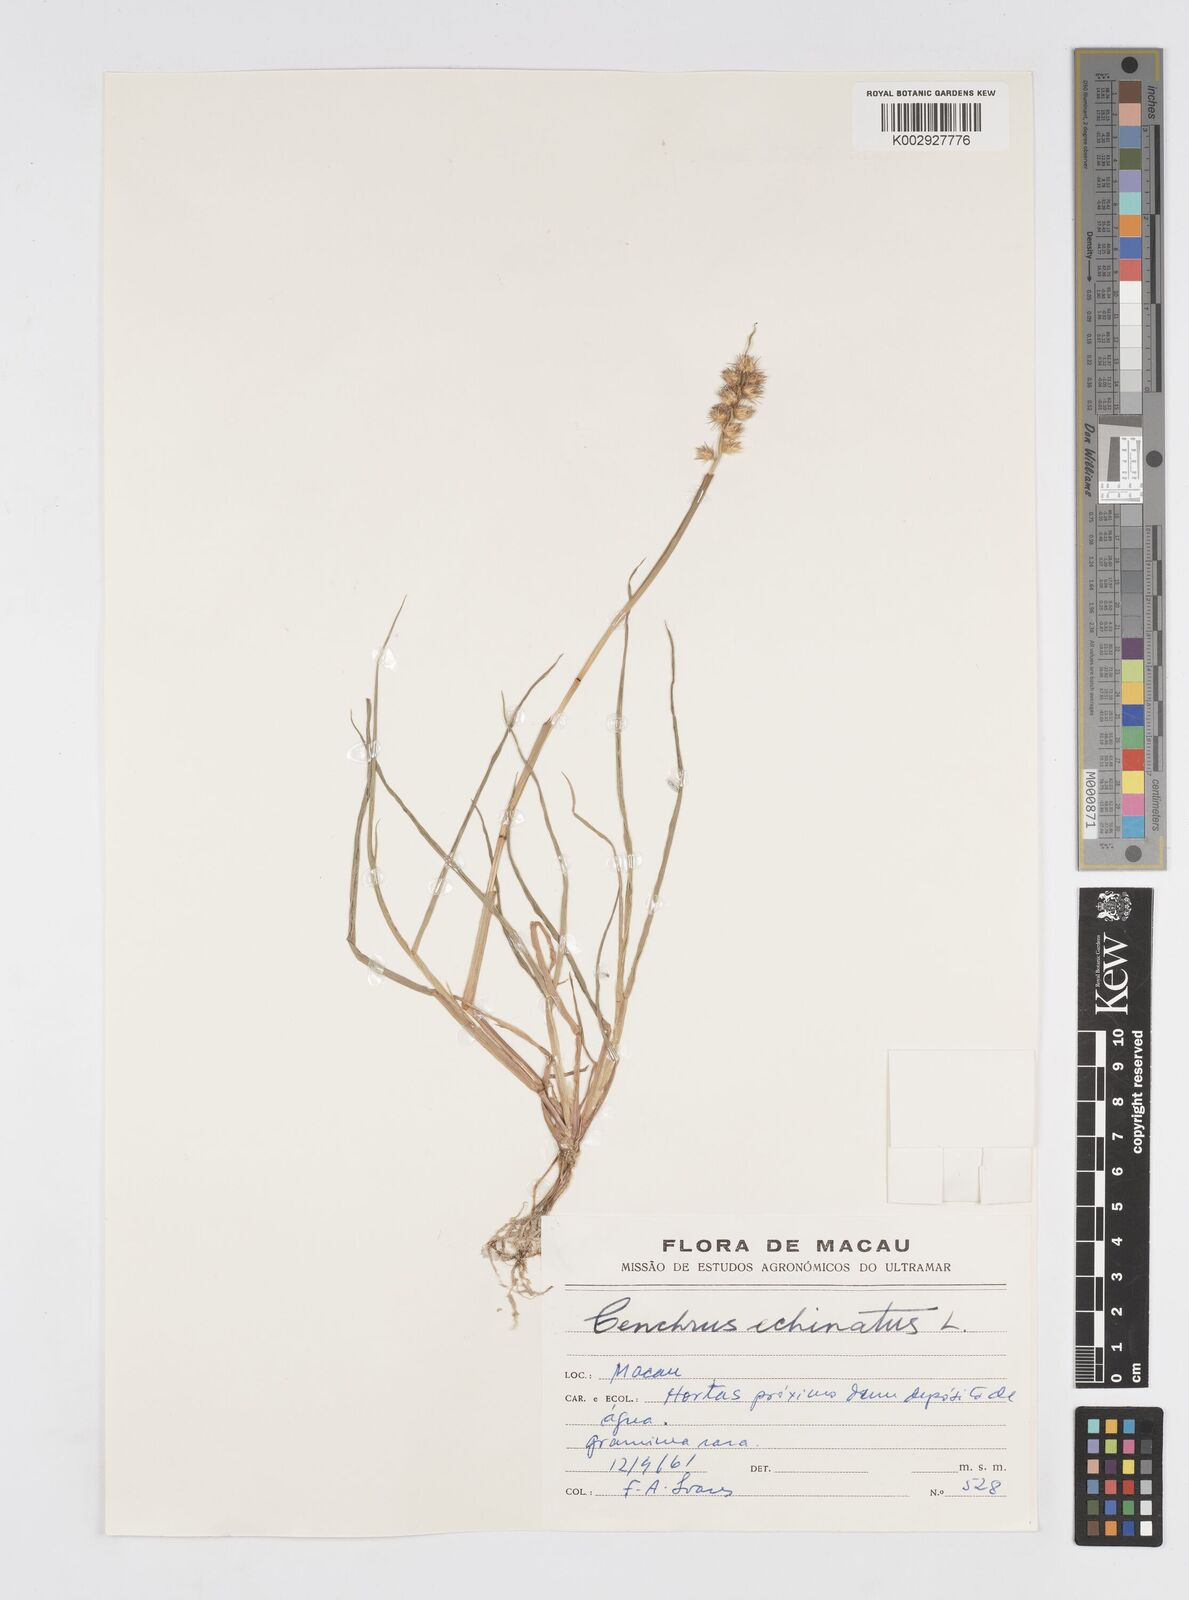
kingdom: Plantae
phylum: Tracheophyta
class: Liliopsida
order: Poales
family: Poaceae
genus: Cenchrus
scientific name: Cenchrus echinatus
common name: Southern sandbur
